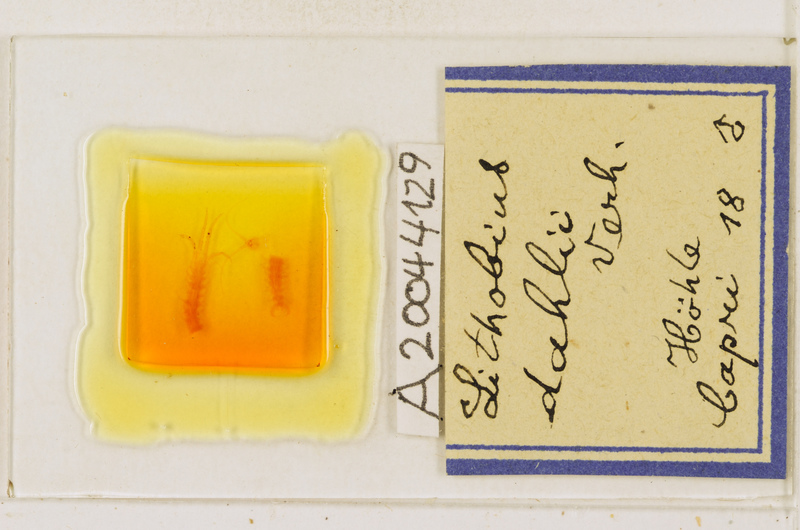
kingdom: Animalia
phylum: Arthropoda
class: Chilopoda
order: Lithobiomorpha
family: Lithobiidae
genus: Lithobius
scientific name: Lithobius dahlii
